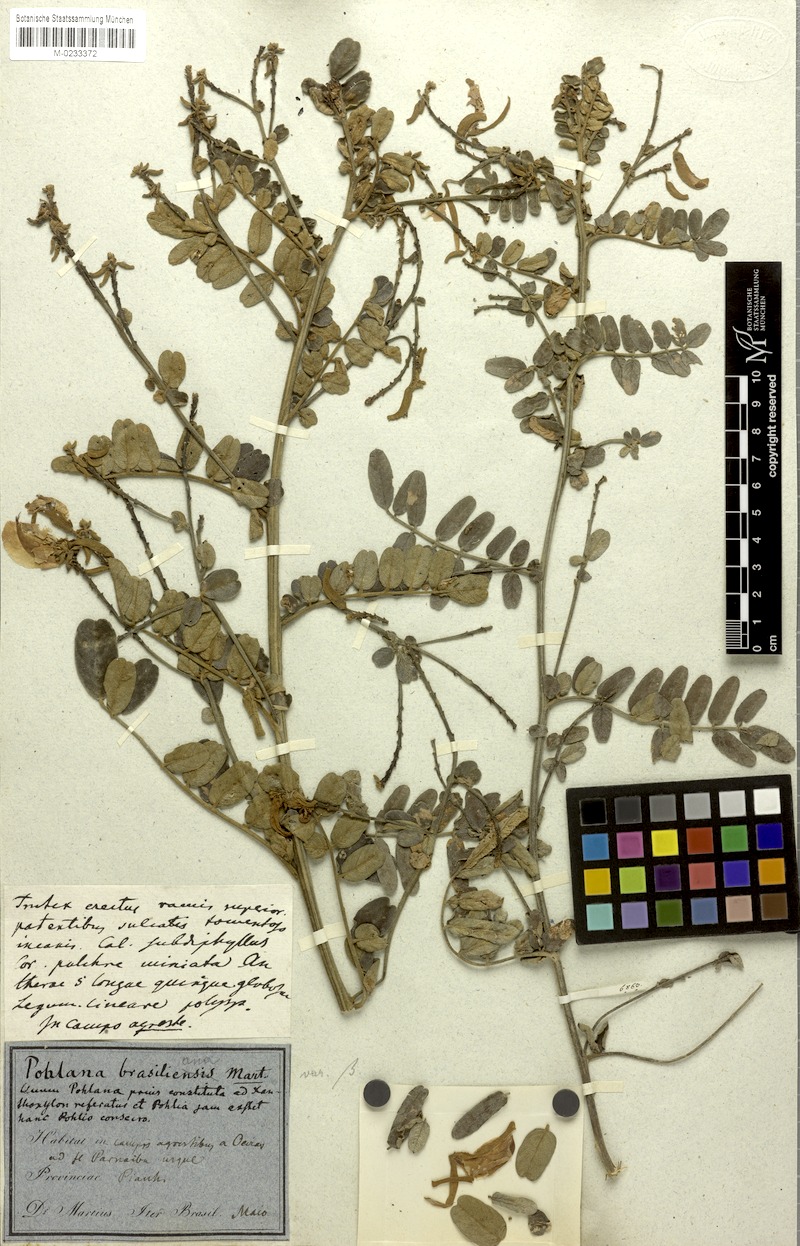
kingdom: Plantae
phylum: Tracheophyta
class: Magnoliopsida
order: Fabales
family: Fabaceae
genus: Harpalyce
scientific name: Harpalyce brasiliana
